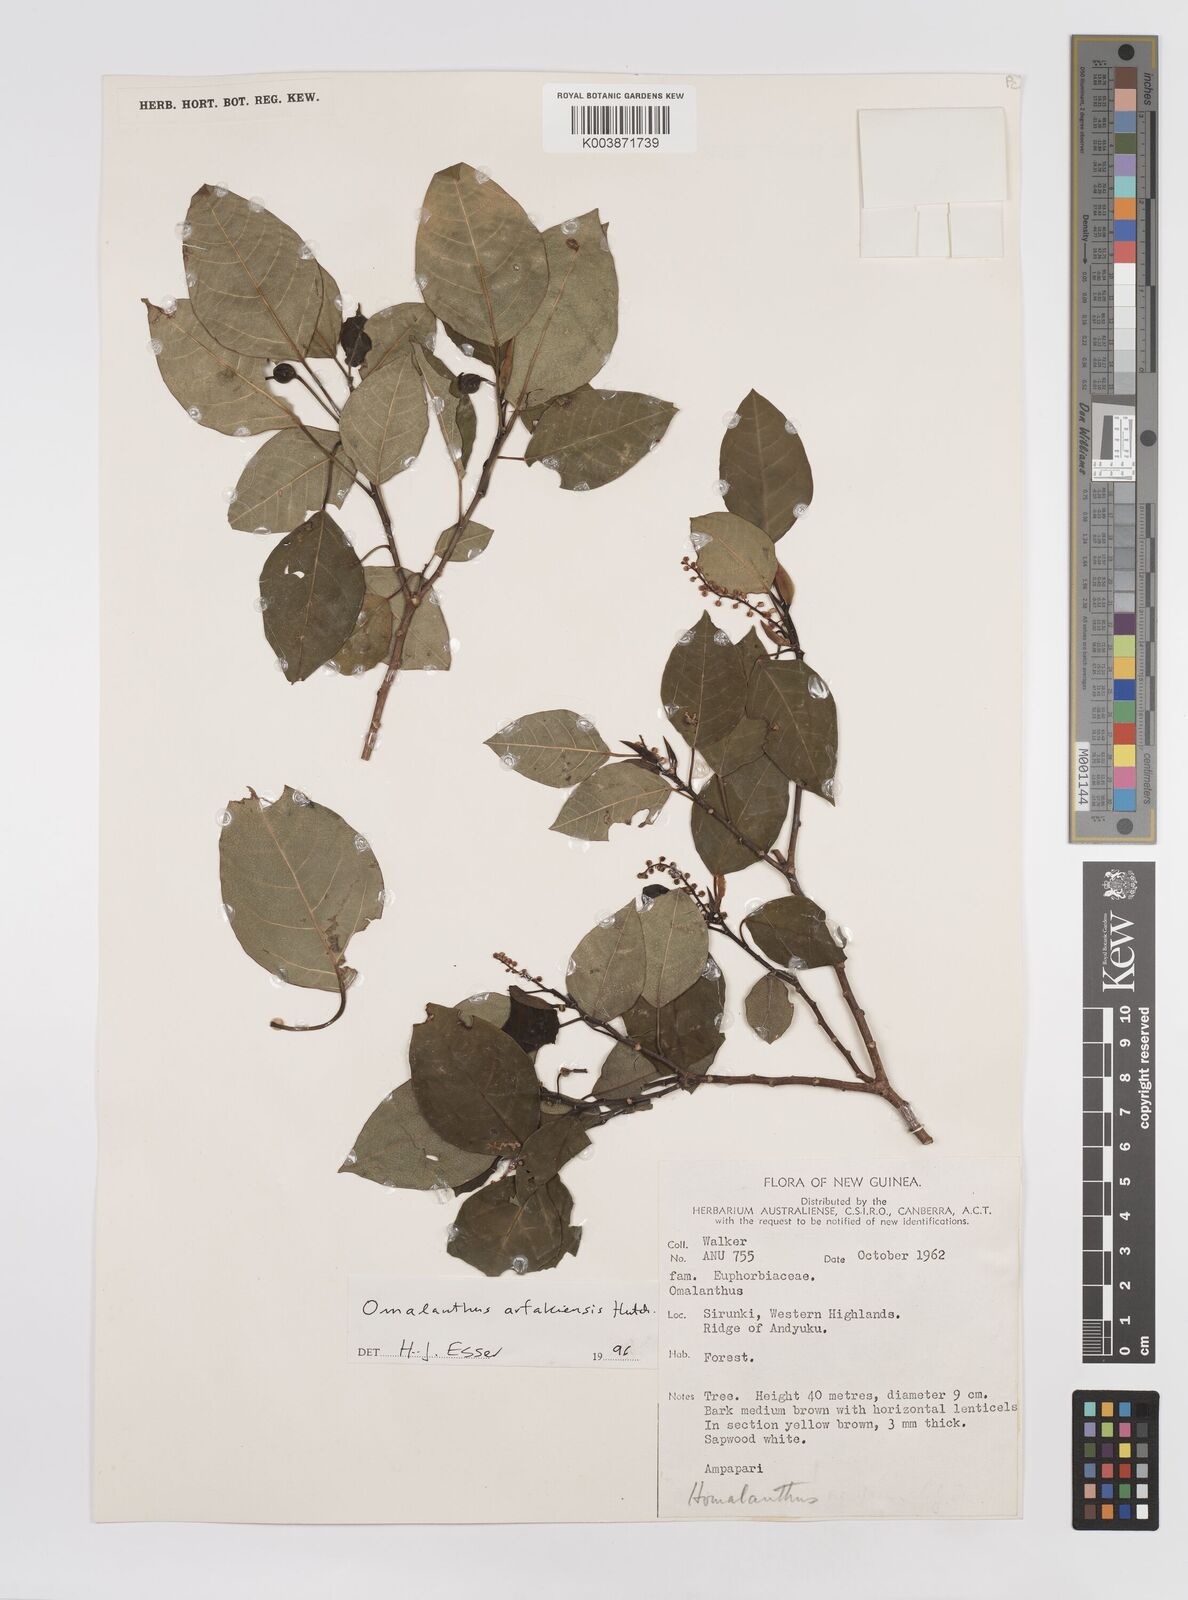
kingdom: Plantae
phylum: Tracheophyta
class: Magnoliopsida
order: Malpighiales
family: Euphorbiaceae
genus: Homalanthus
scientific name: Homalanthus arfakiensis
